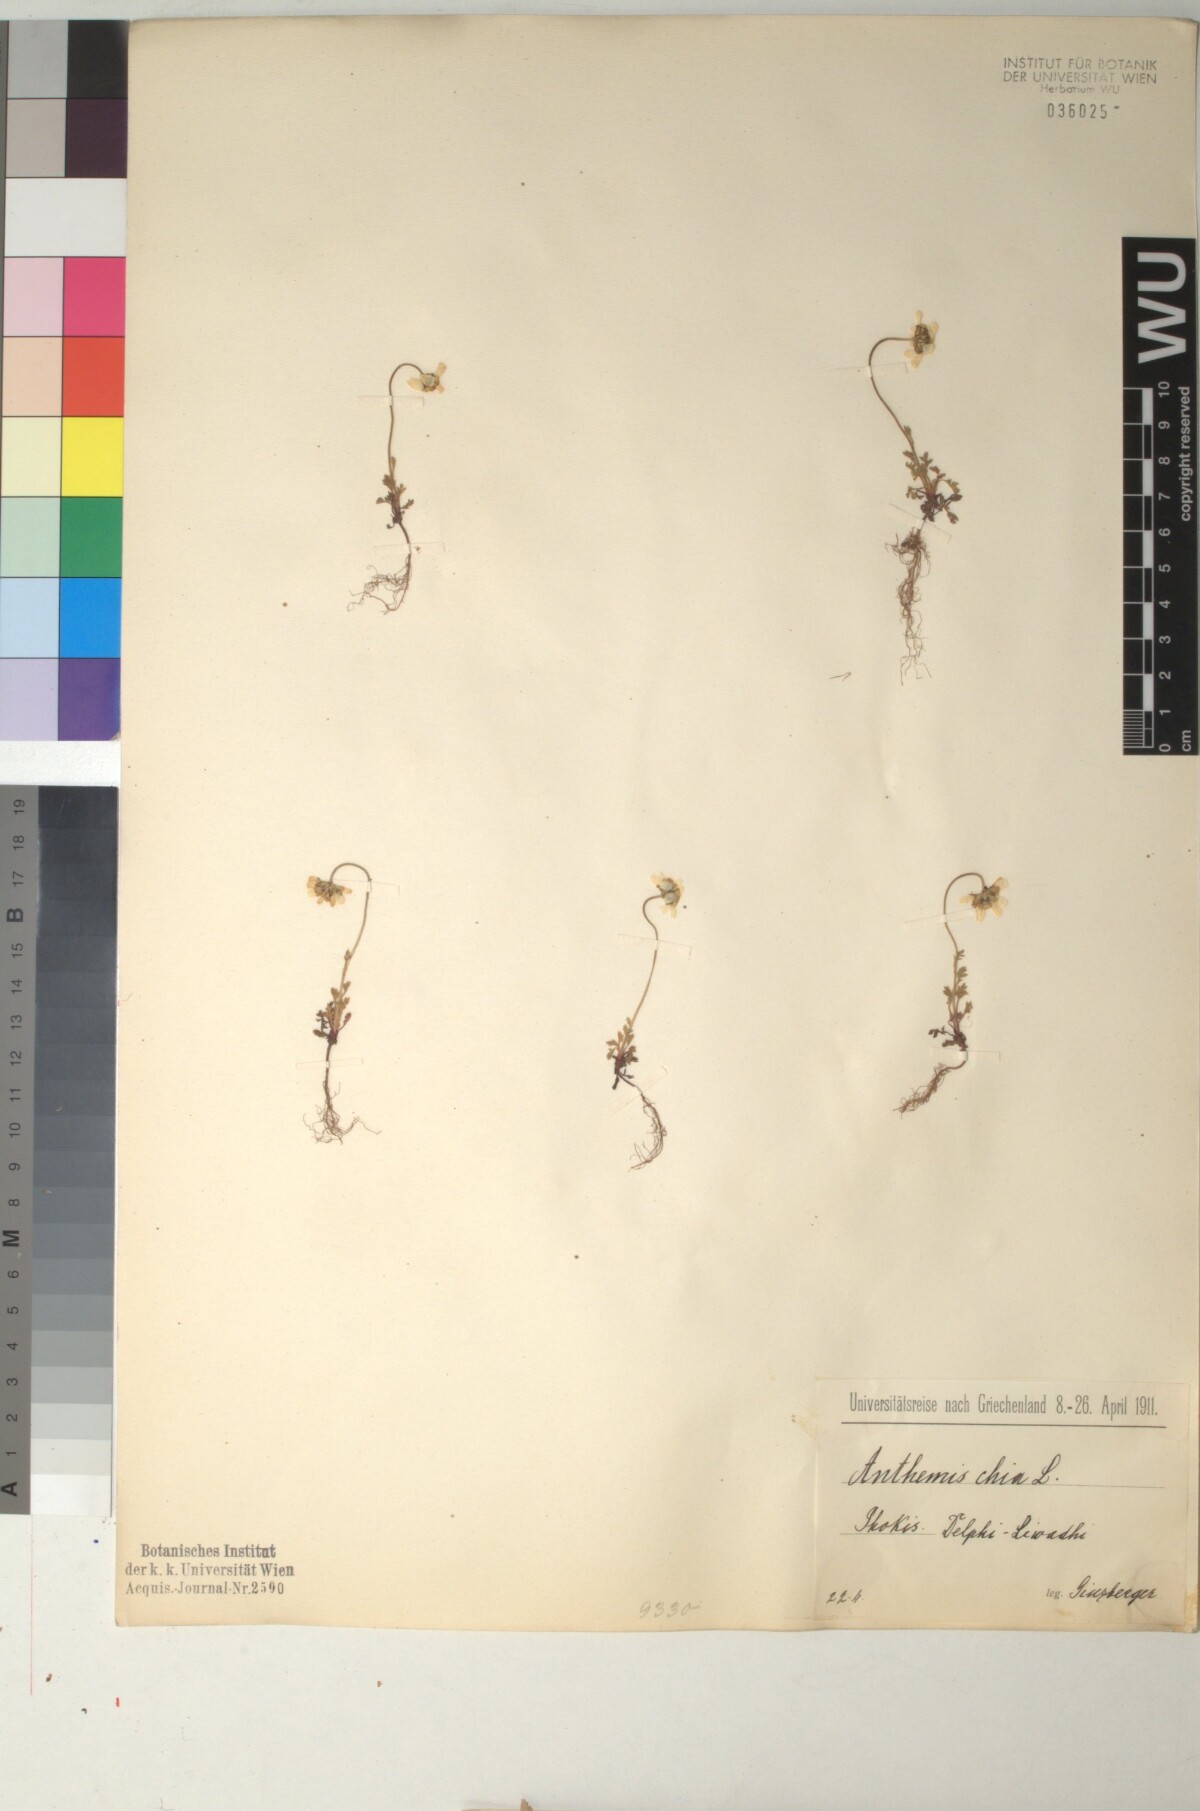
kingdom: Plantae
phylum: Tracheophyta
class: Magnoliopsida
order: Asterales
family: Asteraceae
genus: Anthemis
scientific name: Anthemis chia
